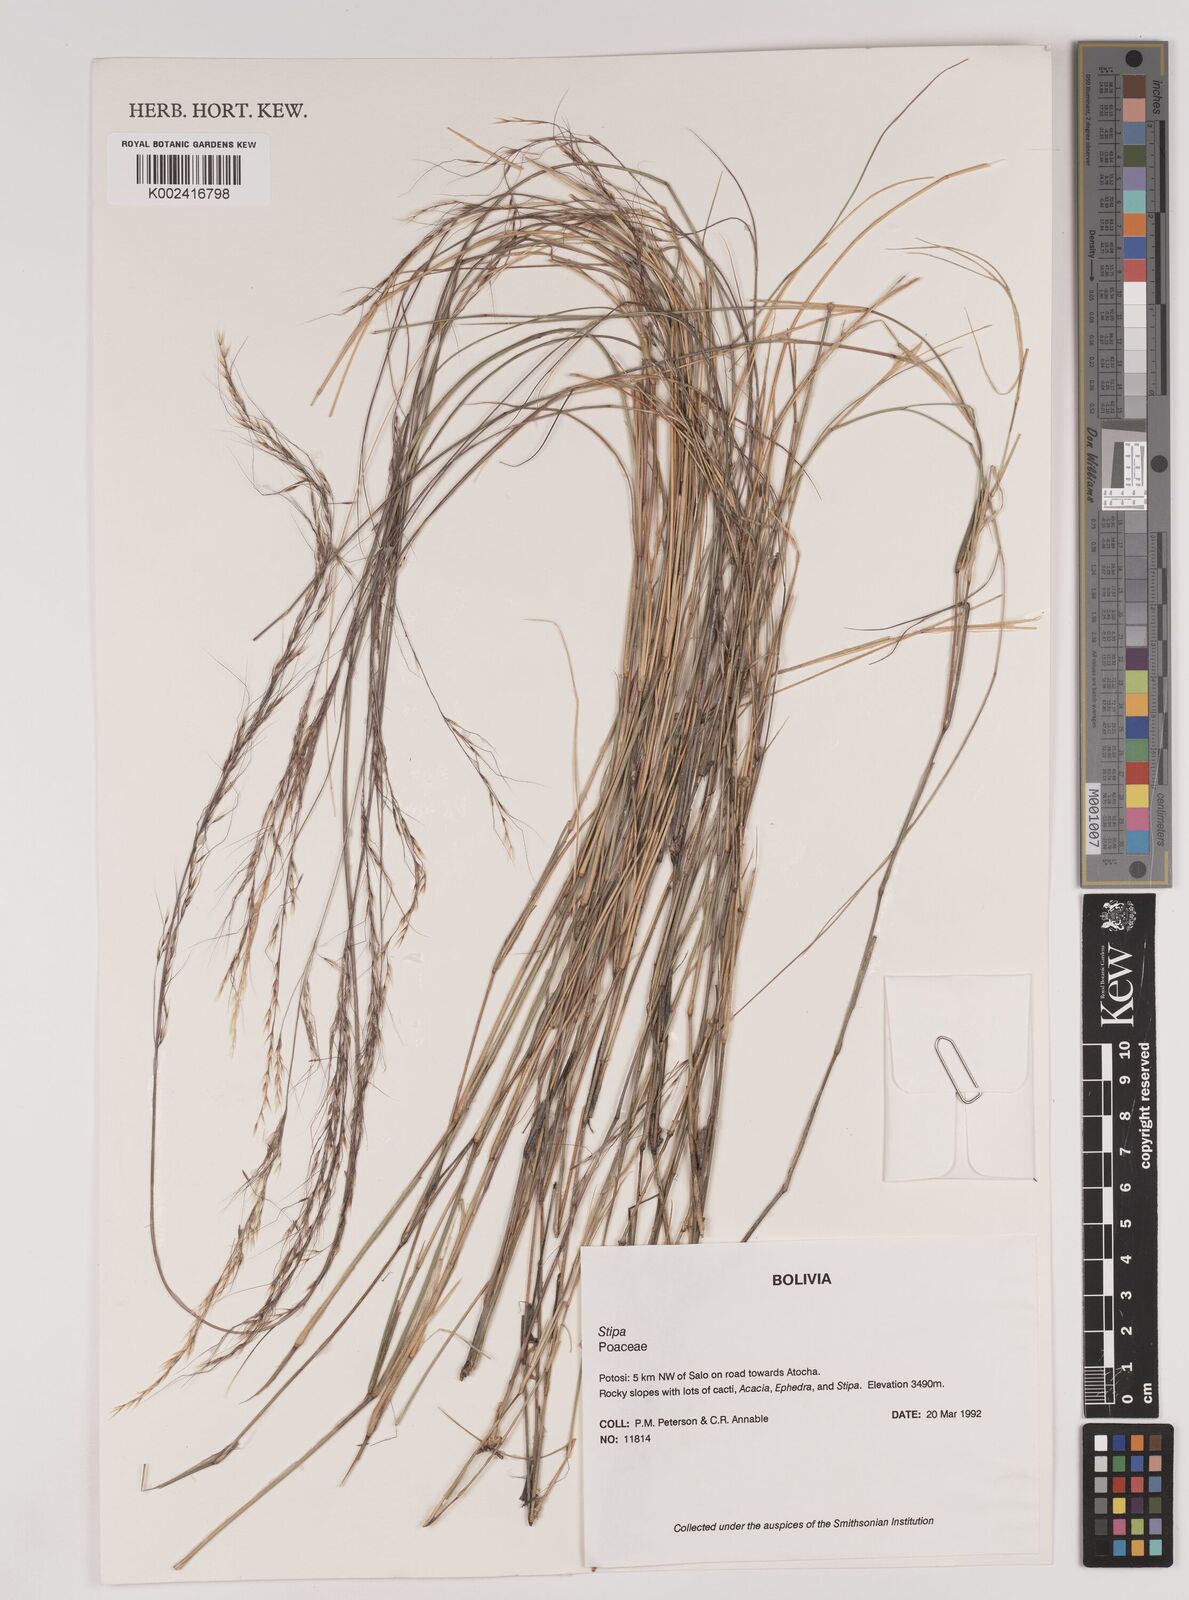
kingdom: Plantae
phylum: Tracheophyta
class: Liliopsida
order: Poales
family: Poaceae
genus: Stipa
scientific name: Stipa illimanica
